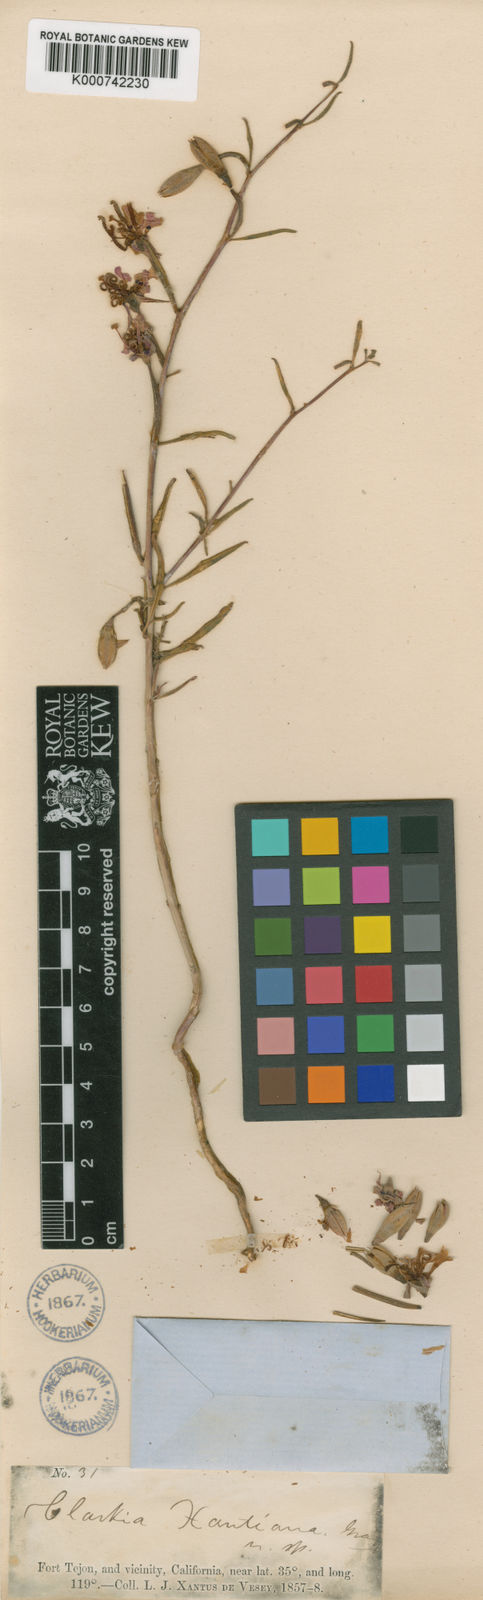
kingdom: Plantae
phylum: Tracheophyta
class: Magnoliopsida
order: Myrtales
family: Onagraceae
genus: Clarkia
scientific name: Clarkia xantiana
